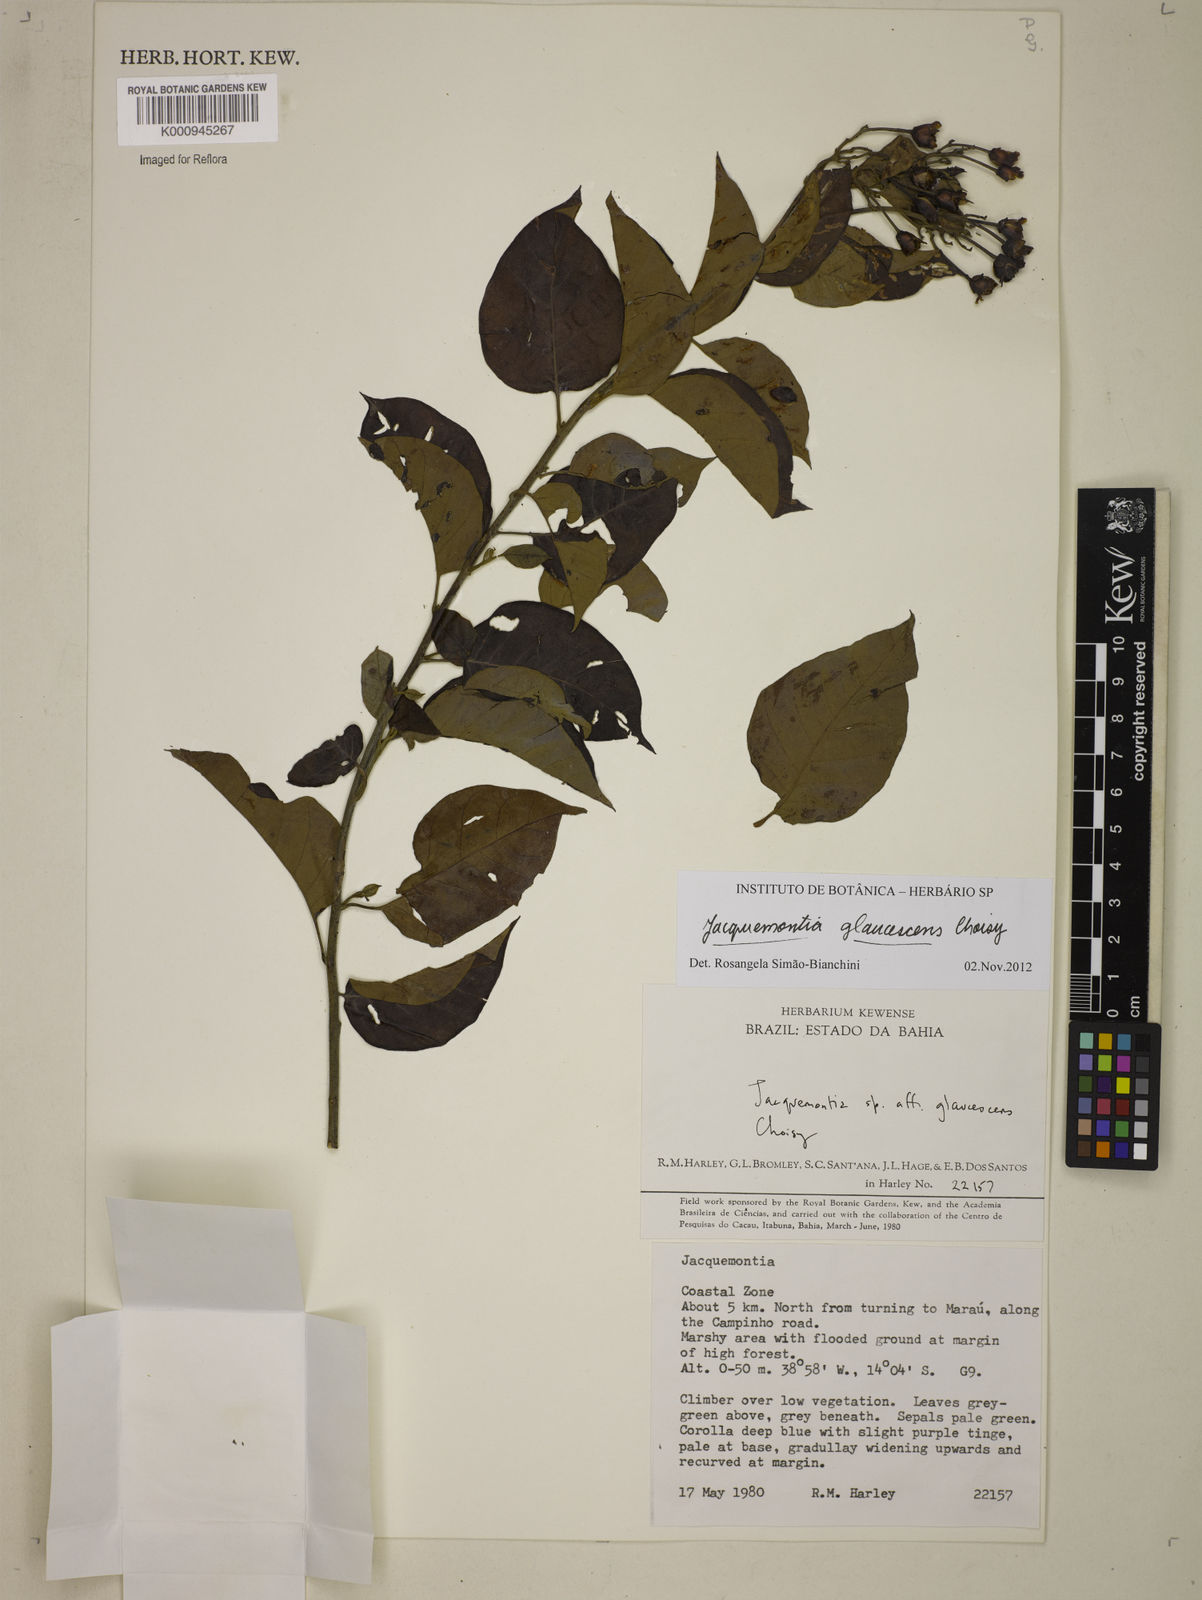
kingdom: Plantae
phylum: Tracheophyta
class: Magnoliopsida
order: Solanales
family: Convolvulaceae
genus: Jacquemontia
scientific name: Jacquemontia glaucescens
